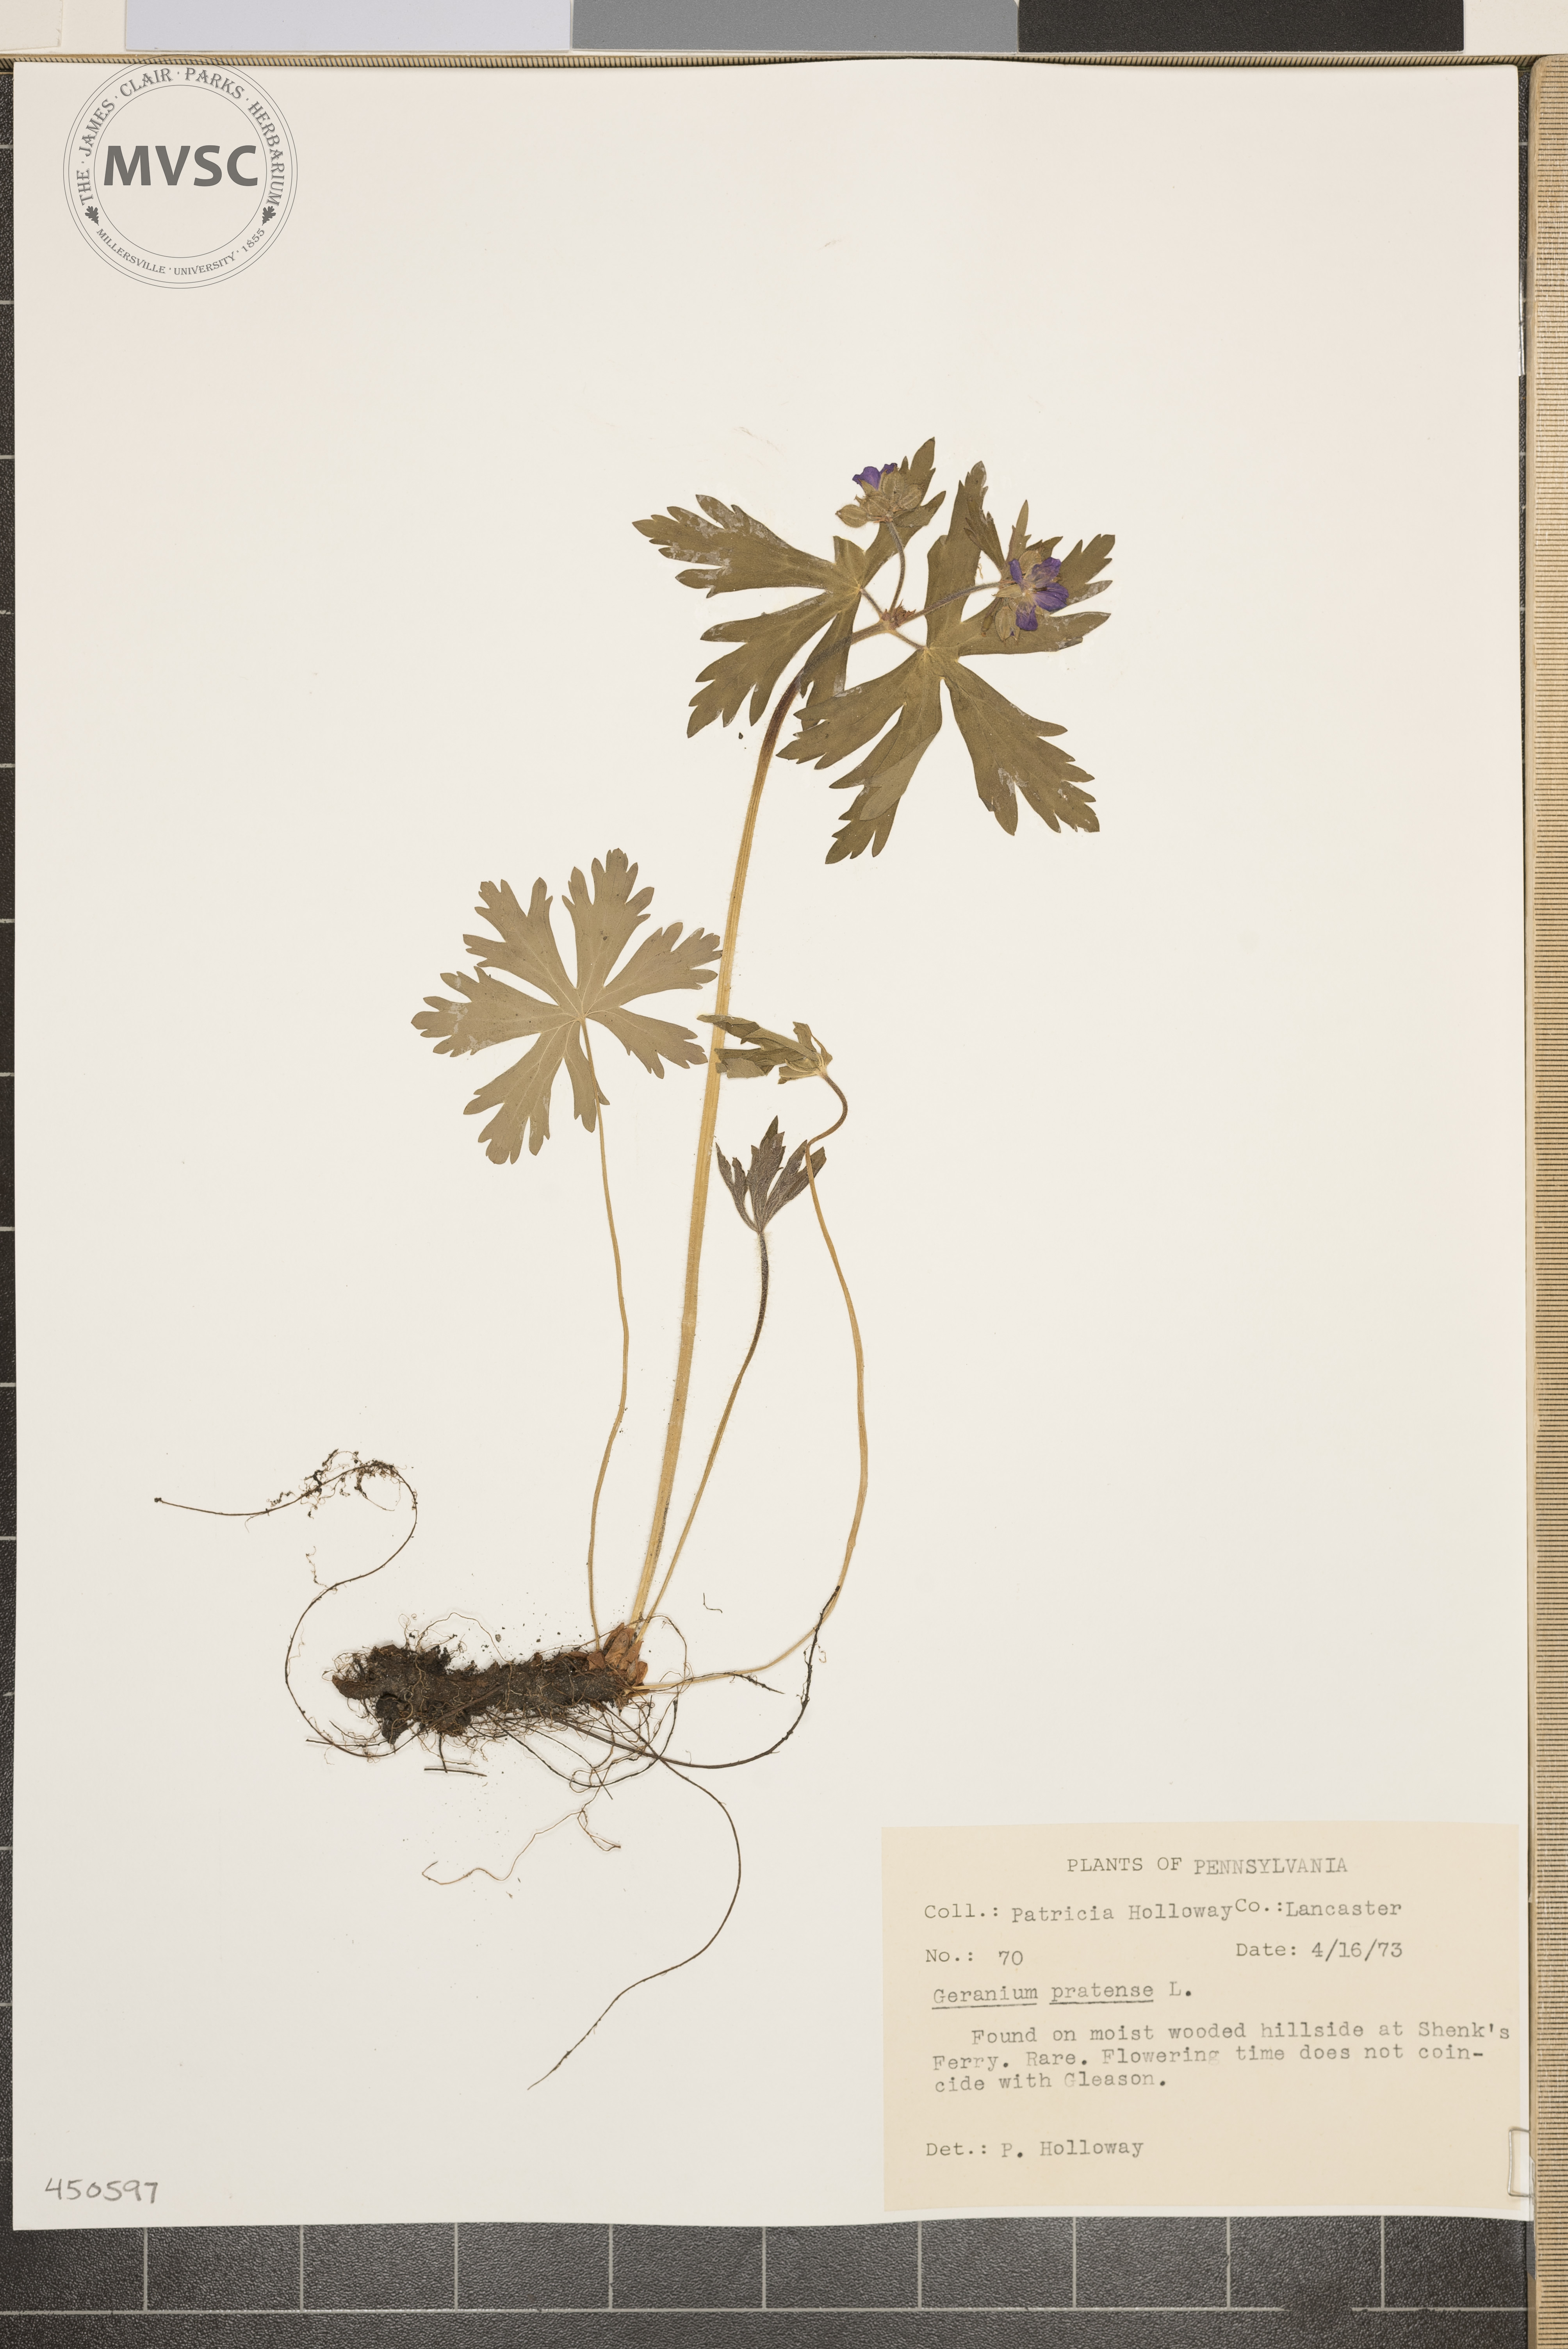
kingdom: Plantae
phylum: Tracheophyta
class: Magnoliopsida
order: Geraniales
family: Geraniaceae
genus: Geranium
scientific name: Geranium maculatum
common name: Spotted geranium
